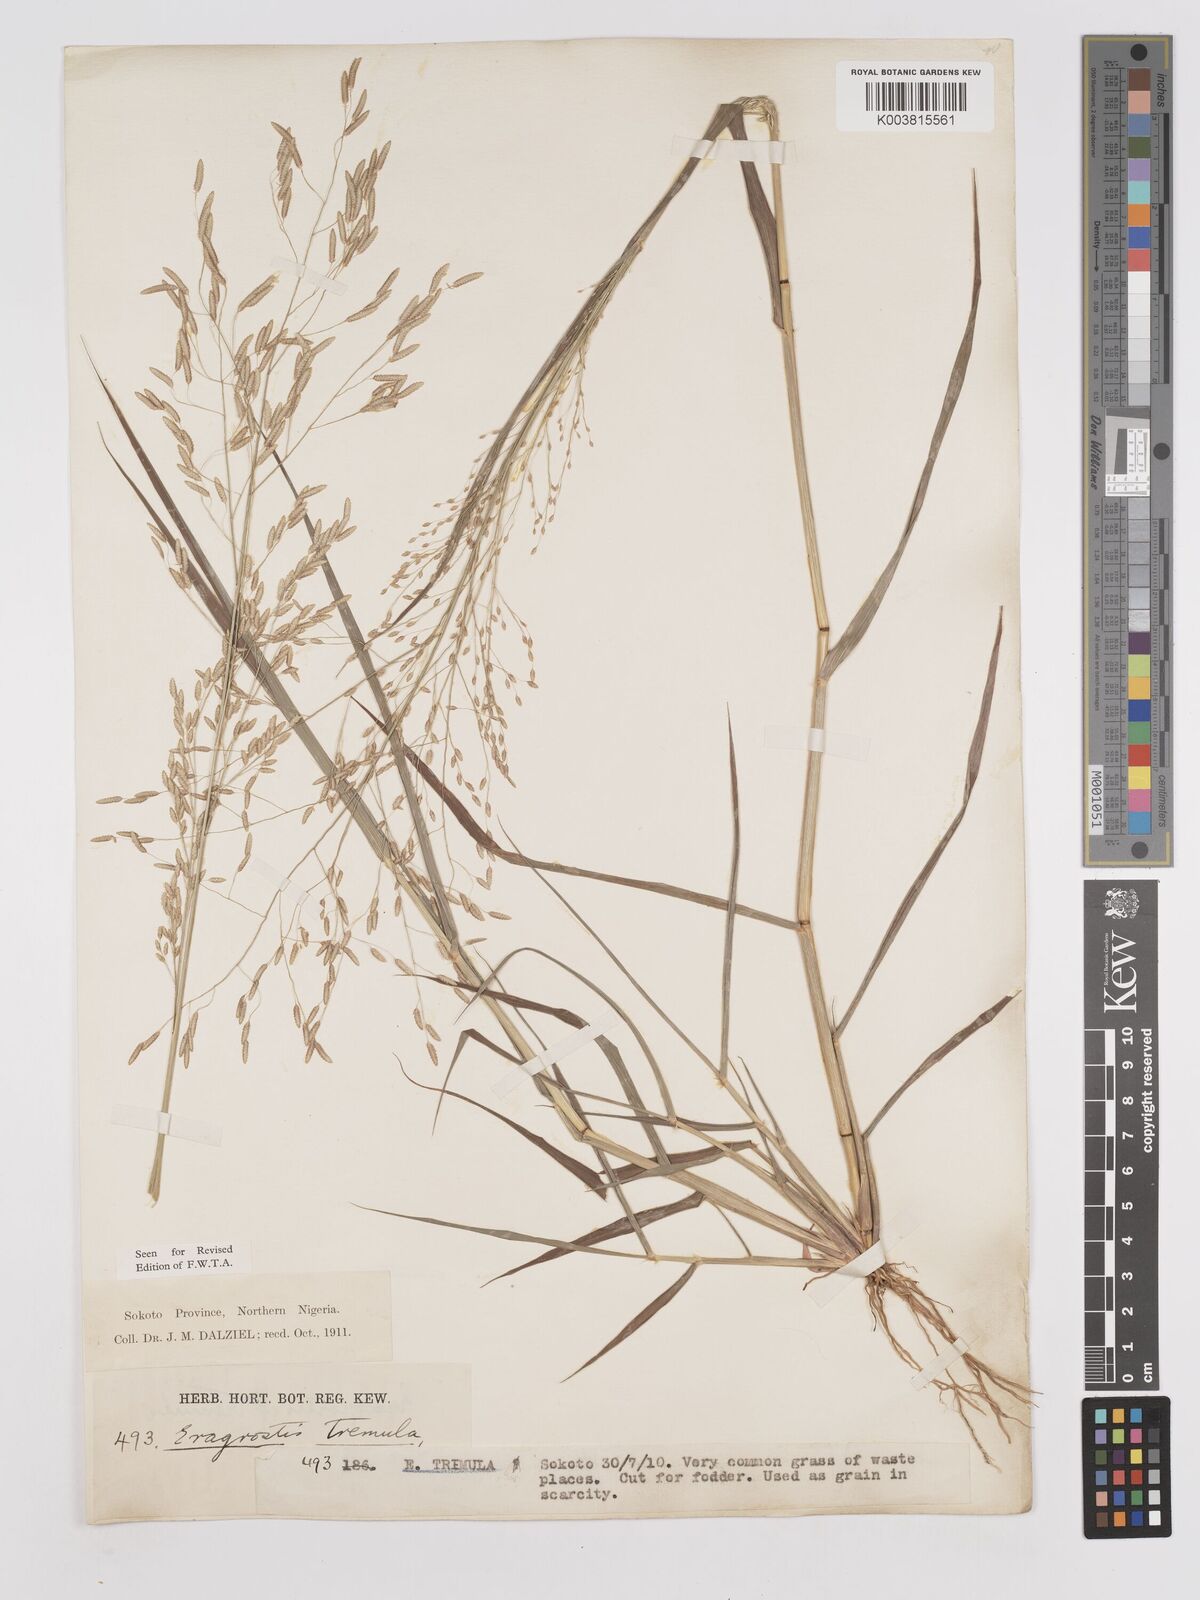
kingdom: Plantae
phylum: Tracheophyta
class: Liliopsida
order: Poales
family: Poaceae
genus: Eragrostis
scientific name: Eragrostis tremula
